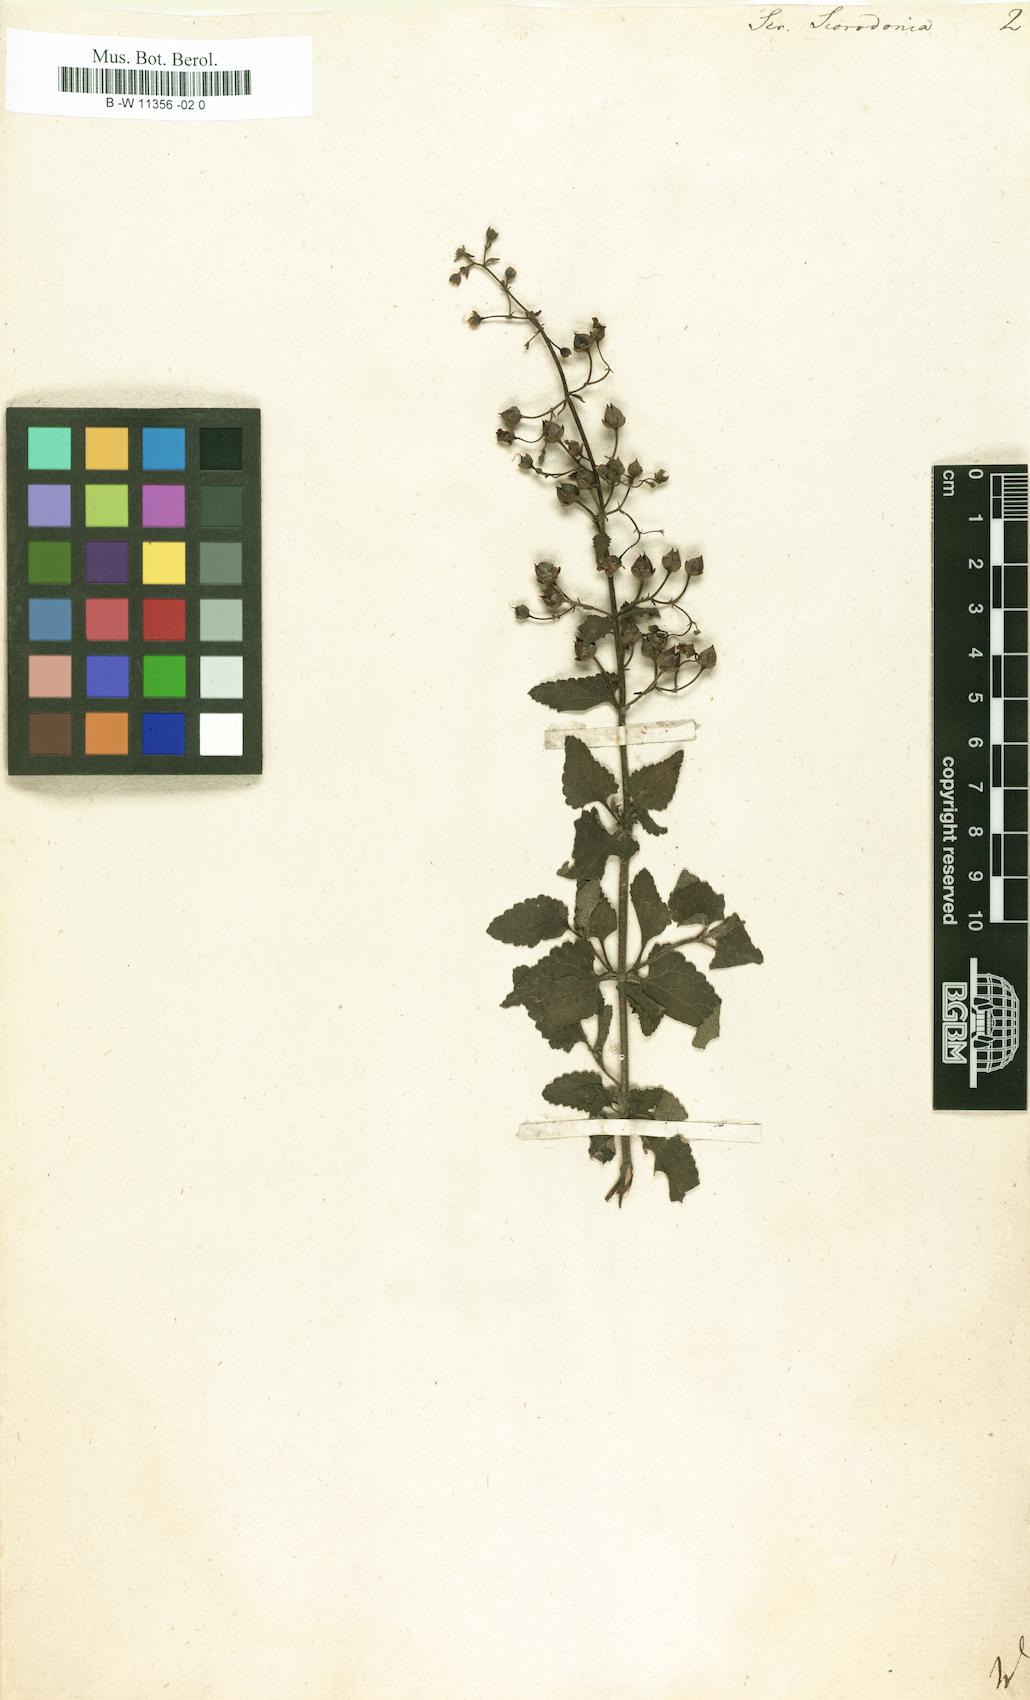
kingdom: Plantae
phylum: Tracheophyta
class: Magnoliopsida
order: Lamiales
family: Scrophulariaceae
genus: Scrophularia
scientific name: Scrophularia scorodonia
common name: Balm-leaved figwort
